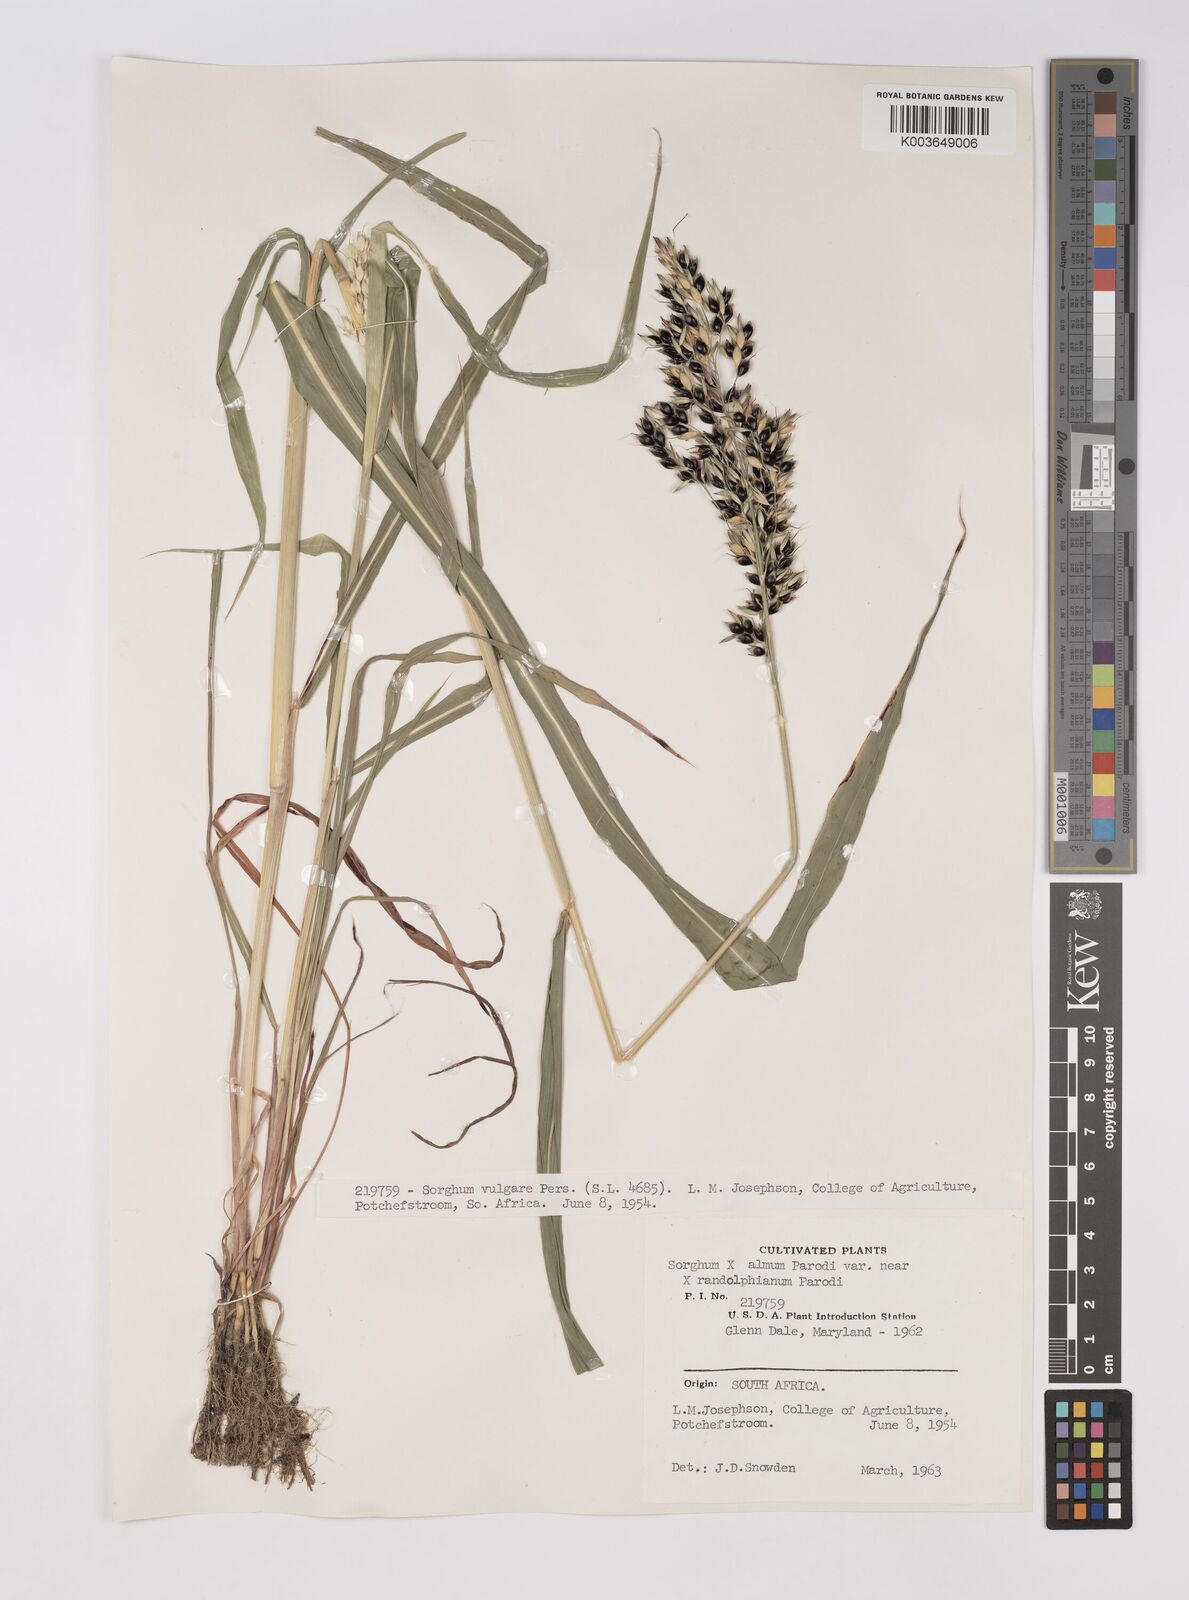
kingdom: Plantae
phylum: Tracheophyta
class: Liliopsida
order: Poales
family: Poaceae
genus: Sorghum
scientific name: Sorghum almum
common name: Columbus grass
